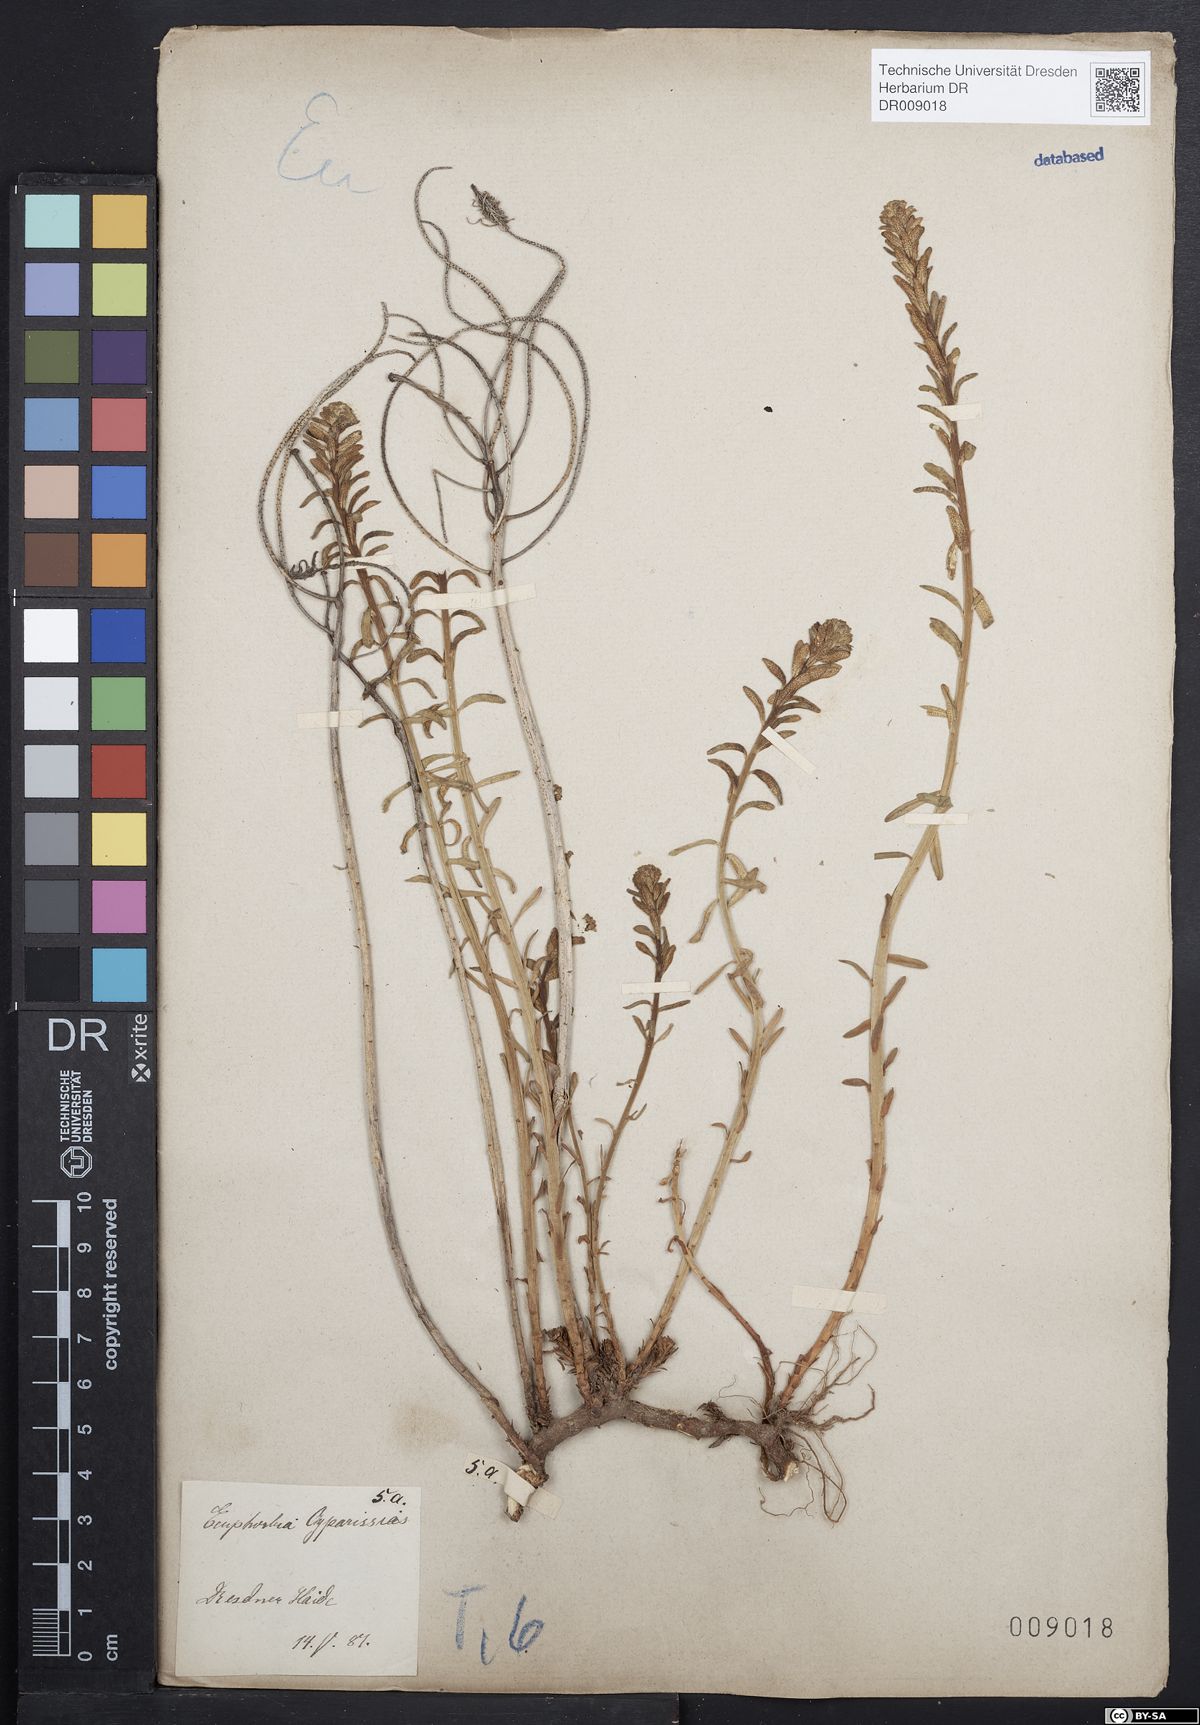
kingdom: Plantae
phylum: Tracheophyta
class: Magnoliopsida
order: Malpighiales
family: Euphorbiaceae
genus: Euphorbia
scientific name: Euphorbia cyparissias
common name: Cypress spurge
